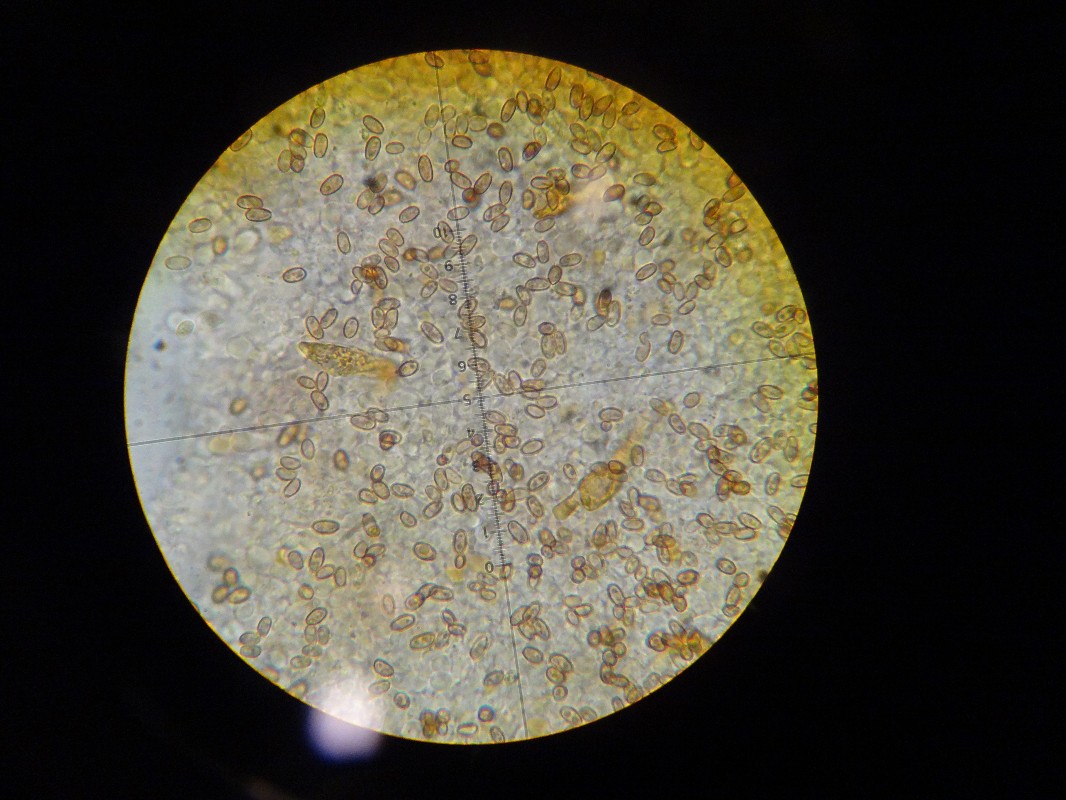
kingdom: Fungi
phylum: Basidiomycota
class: Agaricomycetes
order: Agaricales
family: Strophariaceae
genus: Pholiota
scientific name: Pholiota conissans
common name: pile-skælhat
